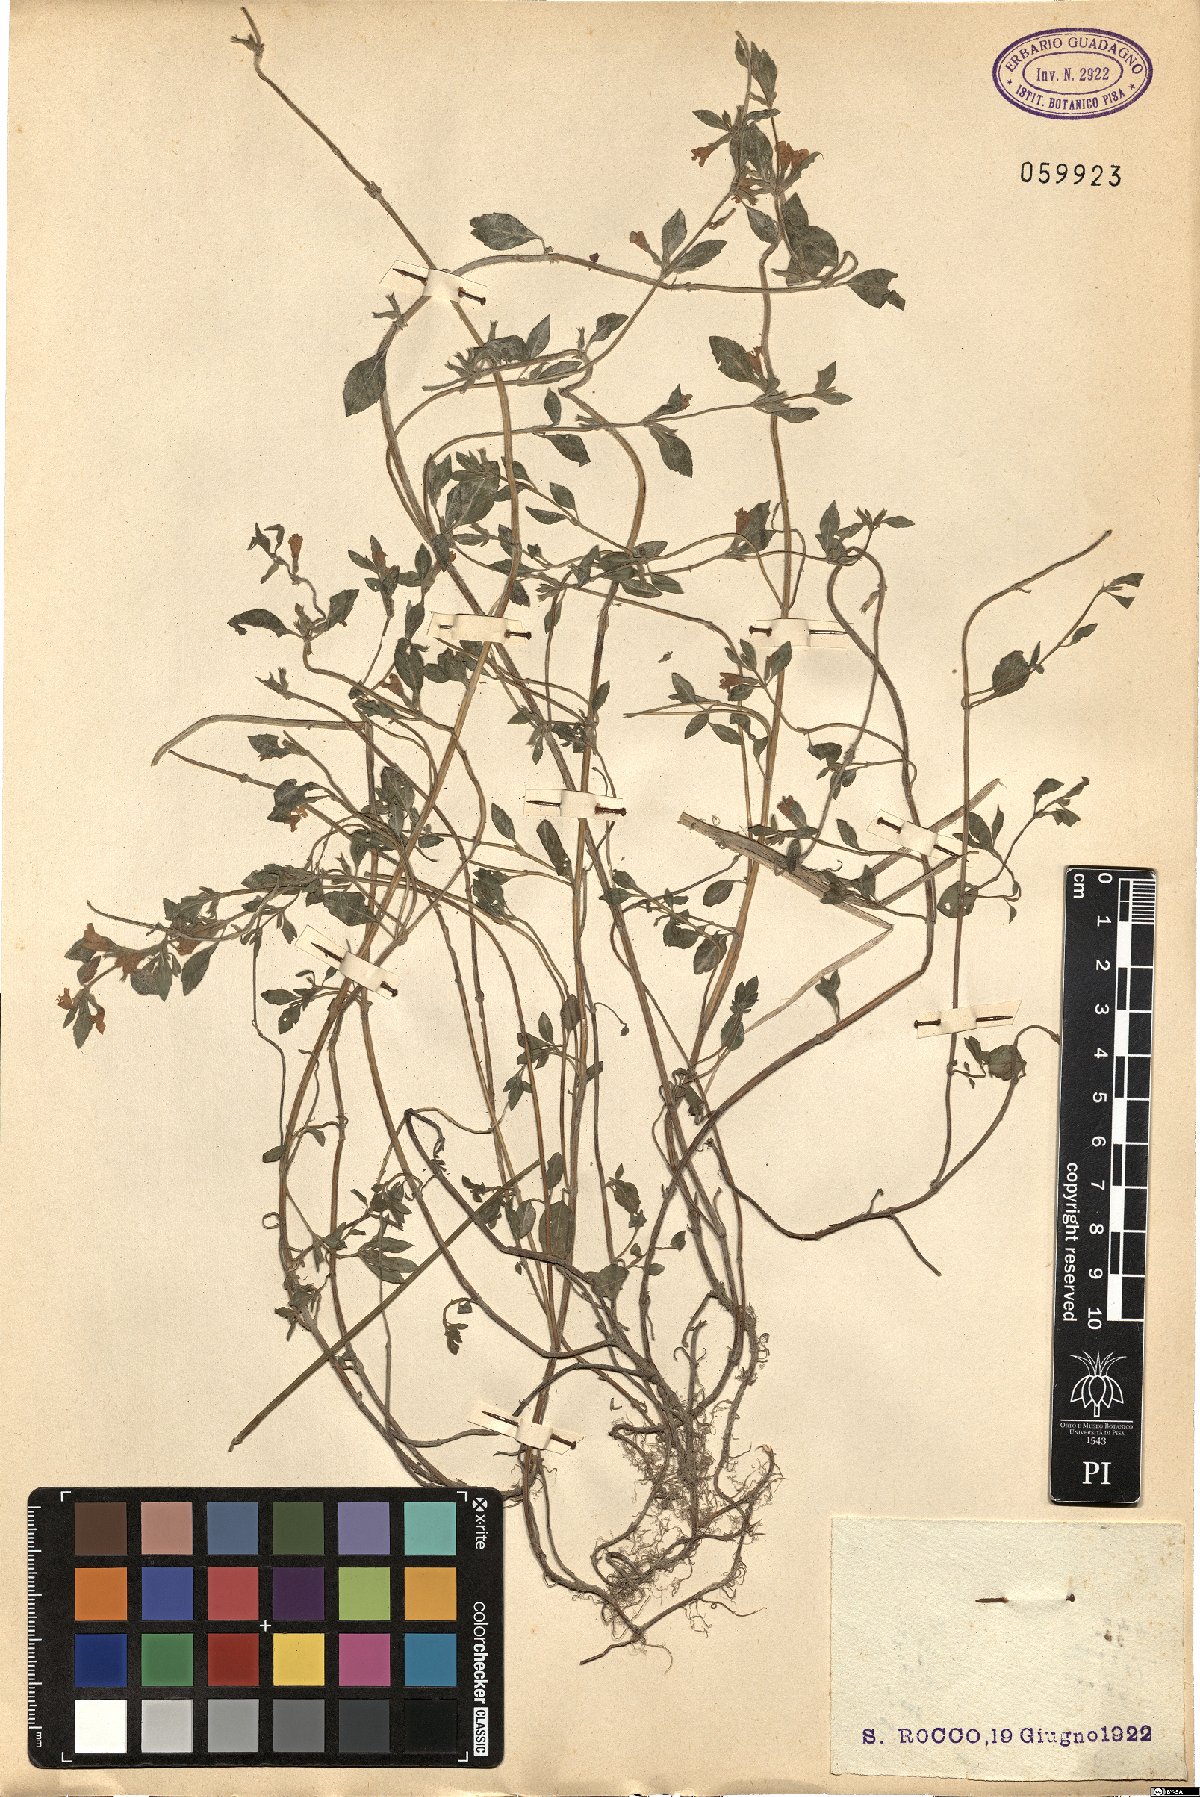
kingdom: Plantae
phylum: Tracheophyta
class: Magnoliopsida
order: Lamiales
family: Lamiaceae
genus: Ziziphora
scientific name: Ziziphora
